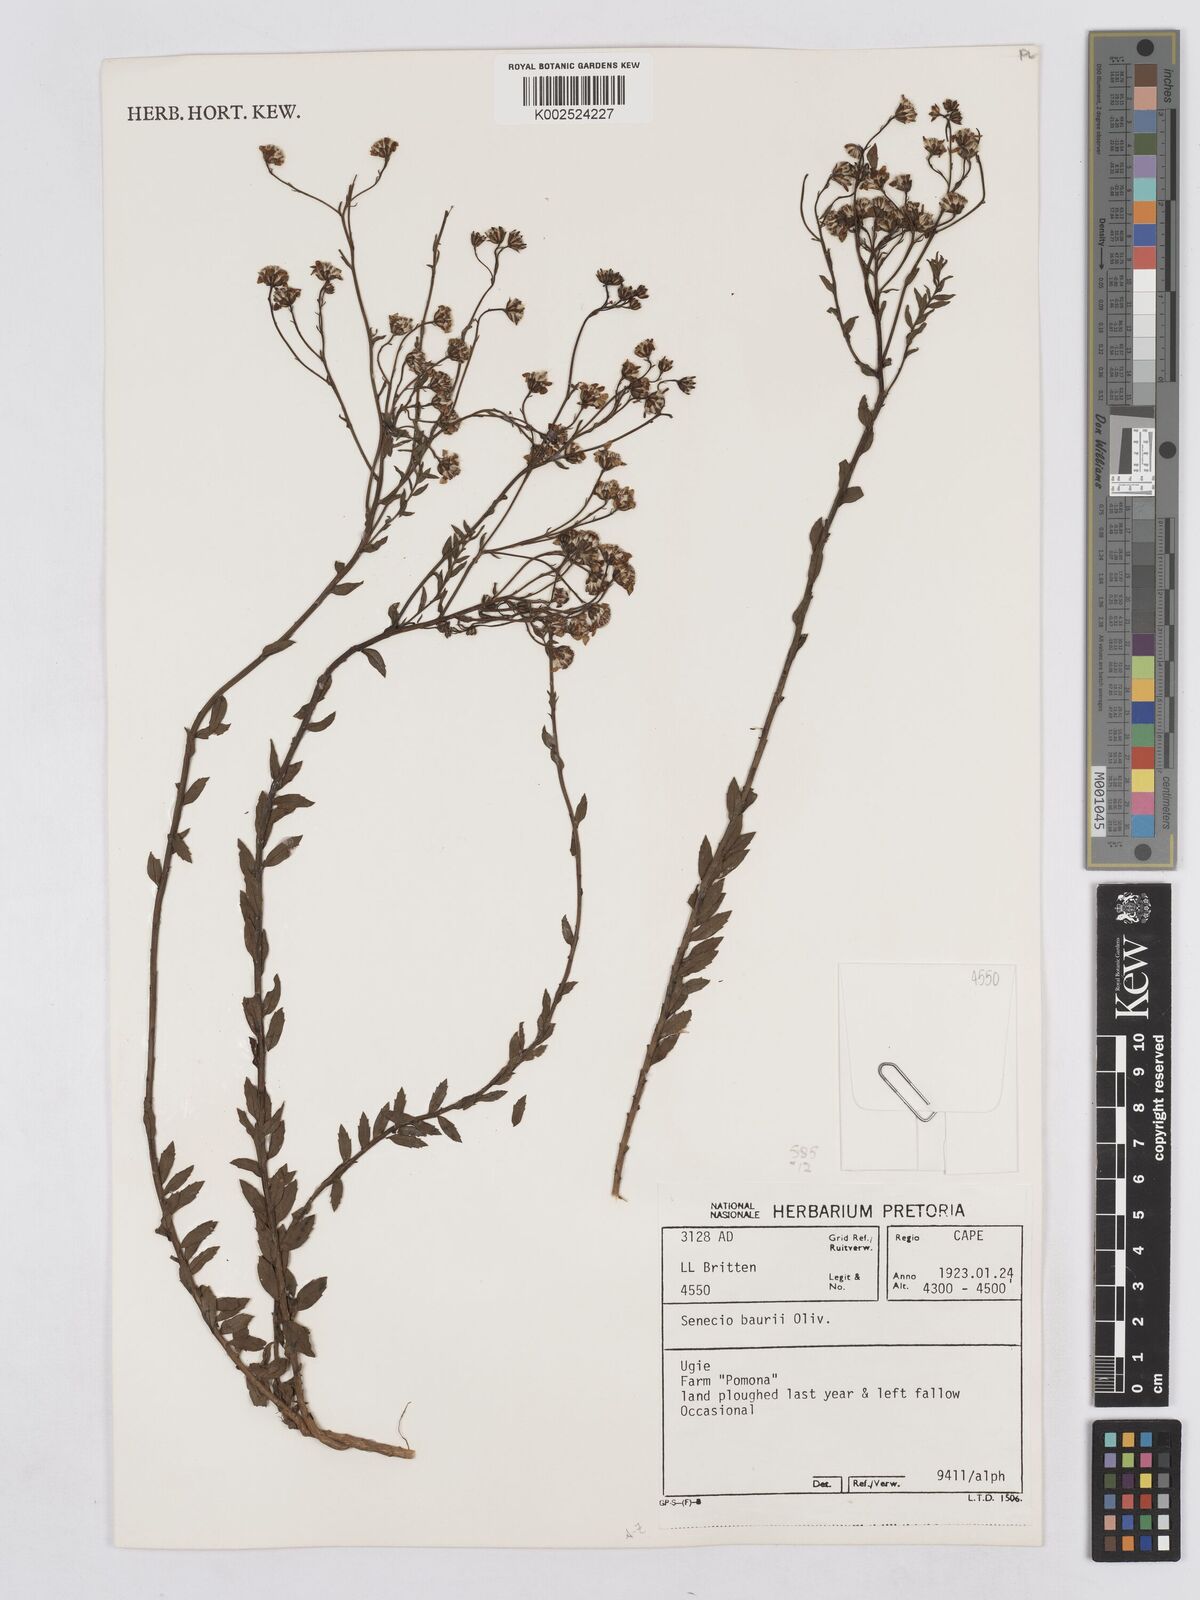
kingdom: Plantae
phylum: Tracheophyta
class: Magnoliopsida
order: Asterales
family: Asteraceae
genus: Senecio
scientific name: Senecio baurii
